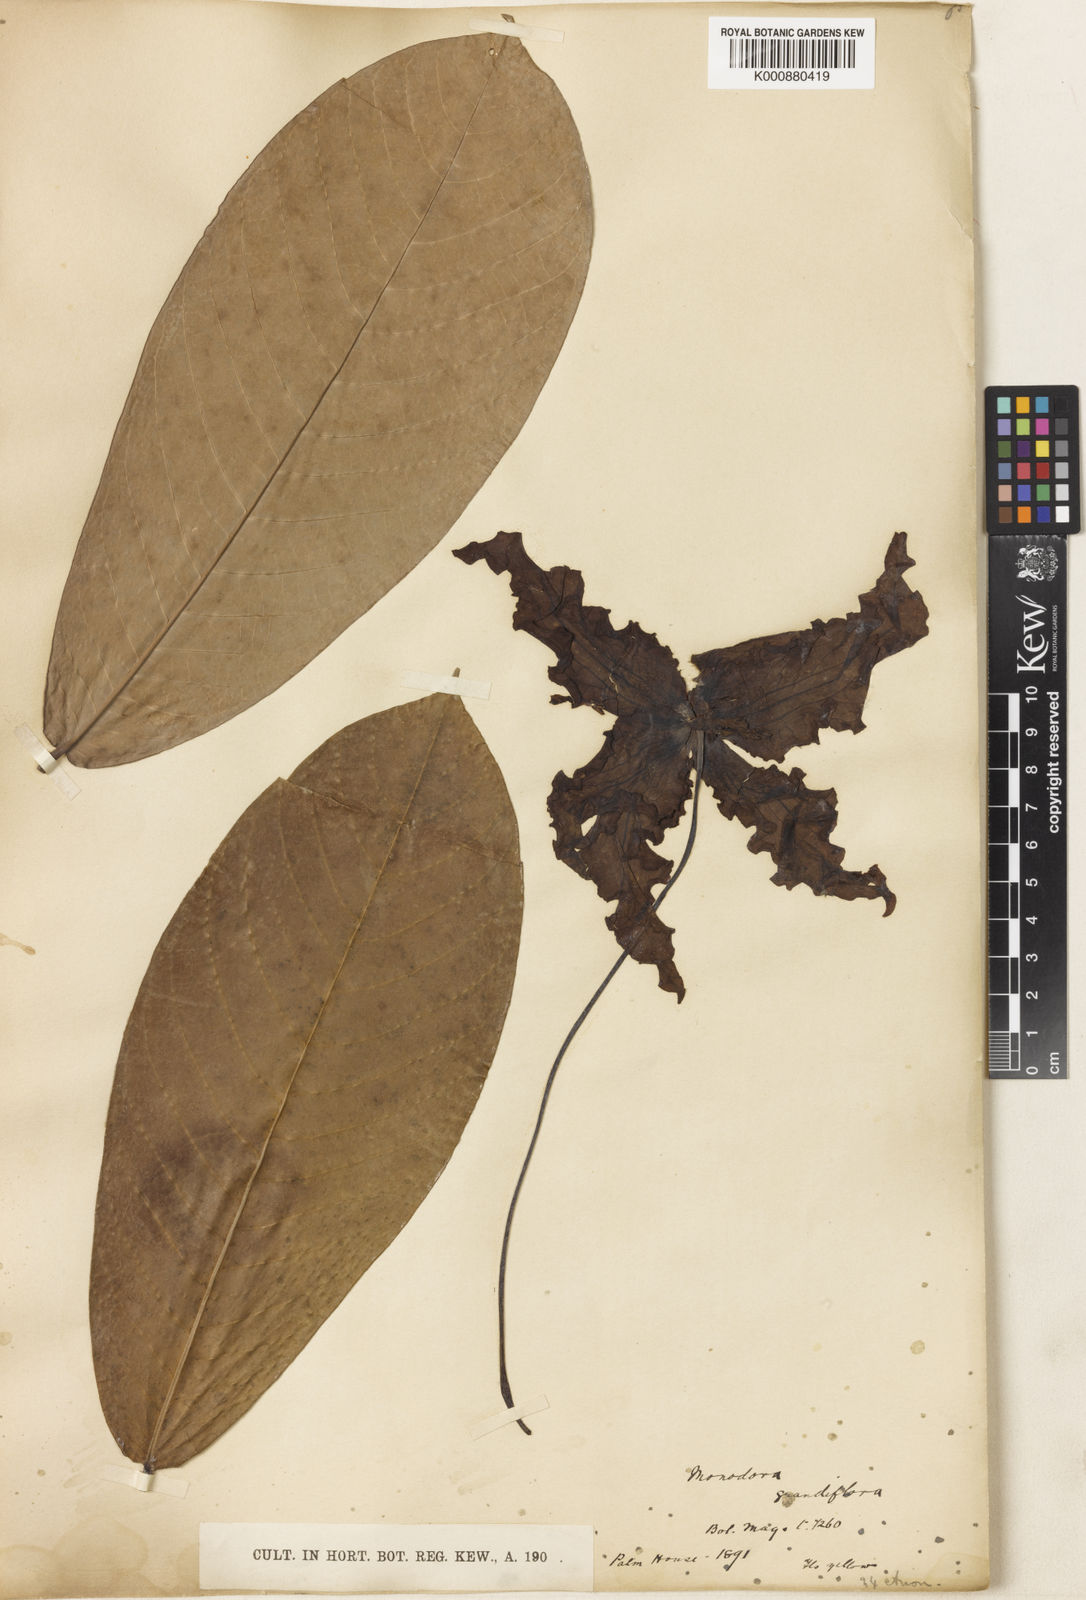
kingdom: Plantae
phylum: Tracheophyta
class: Magnoliopsida
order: Magnoliales
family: Annonaceae
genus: Monodora
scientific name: Monodora myristica
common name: African nutmeg
